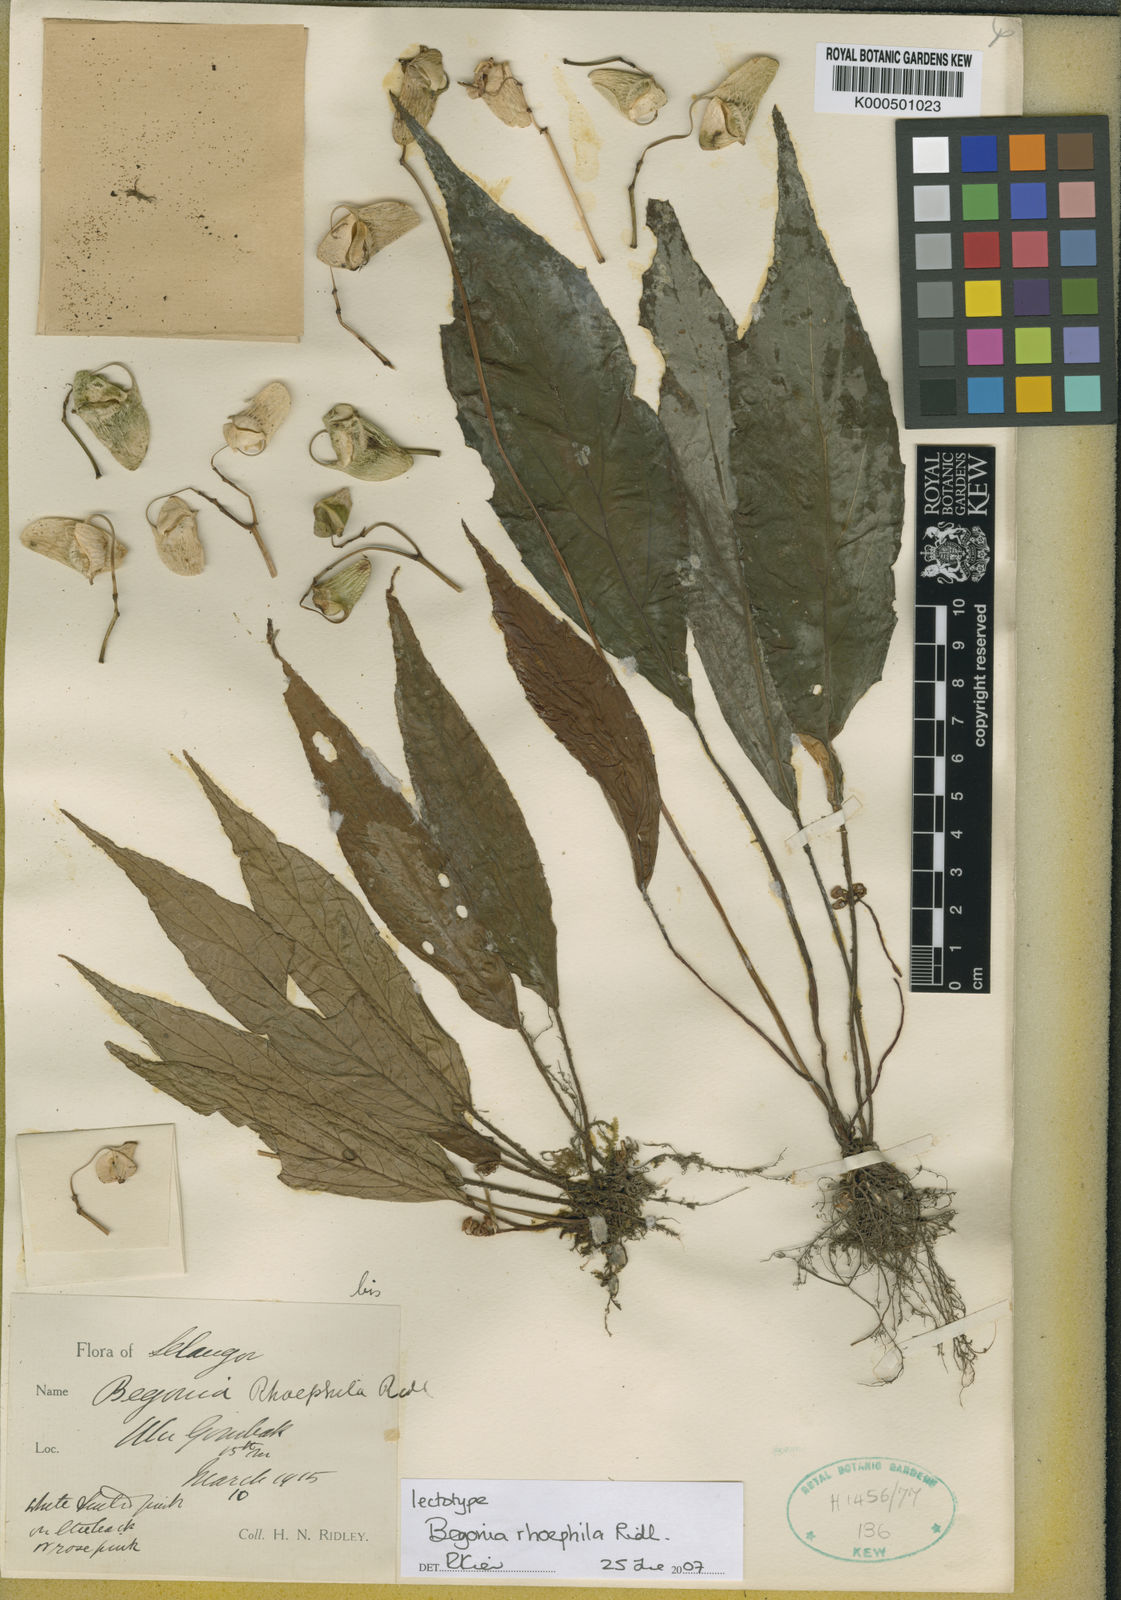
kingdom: Plantae
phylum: Tracheophyta
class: Magnoliopsida
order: Cucurbitales
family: Begoniaceae
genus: Begonia
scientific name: Begonia rhoephila
